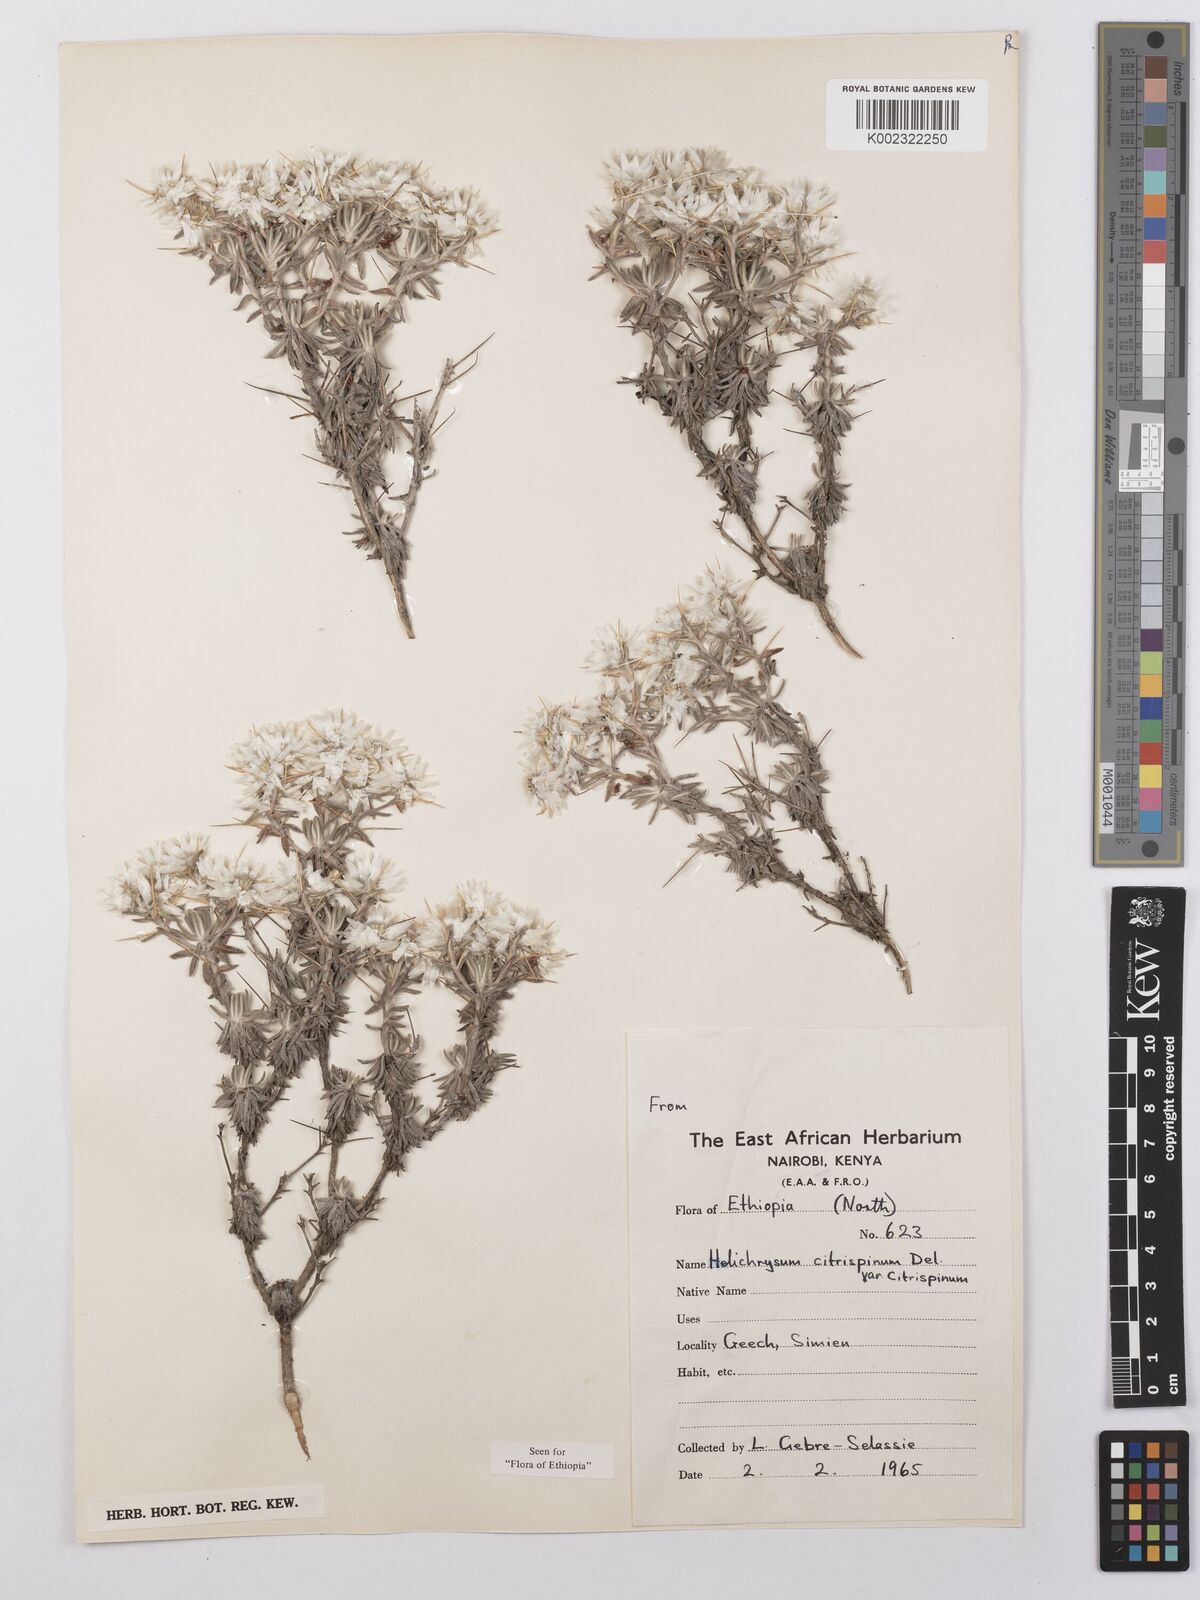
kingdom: Plantae
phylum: Tracheophyta
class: Magnoliopsida
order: Asterales
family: Asteraceae
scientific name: Asteraceae
